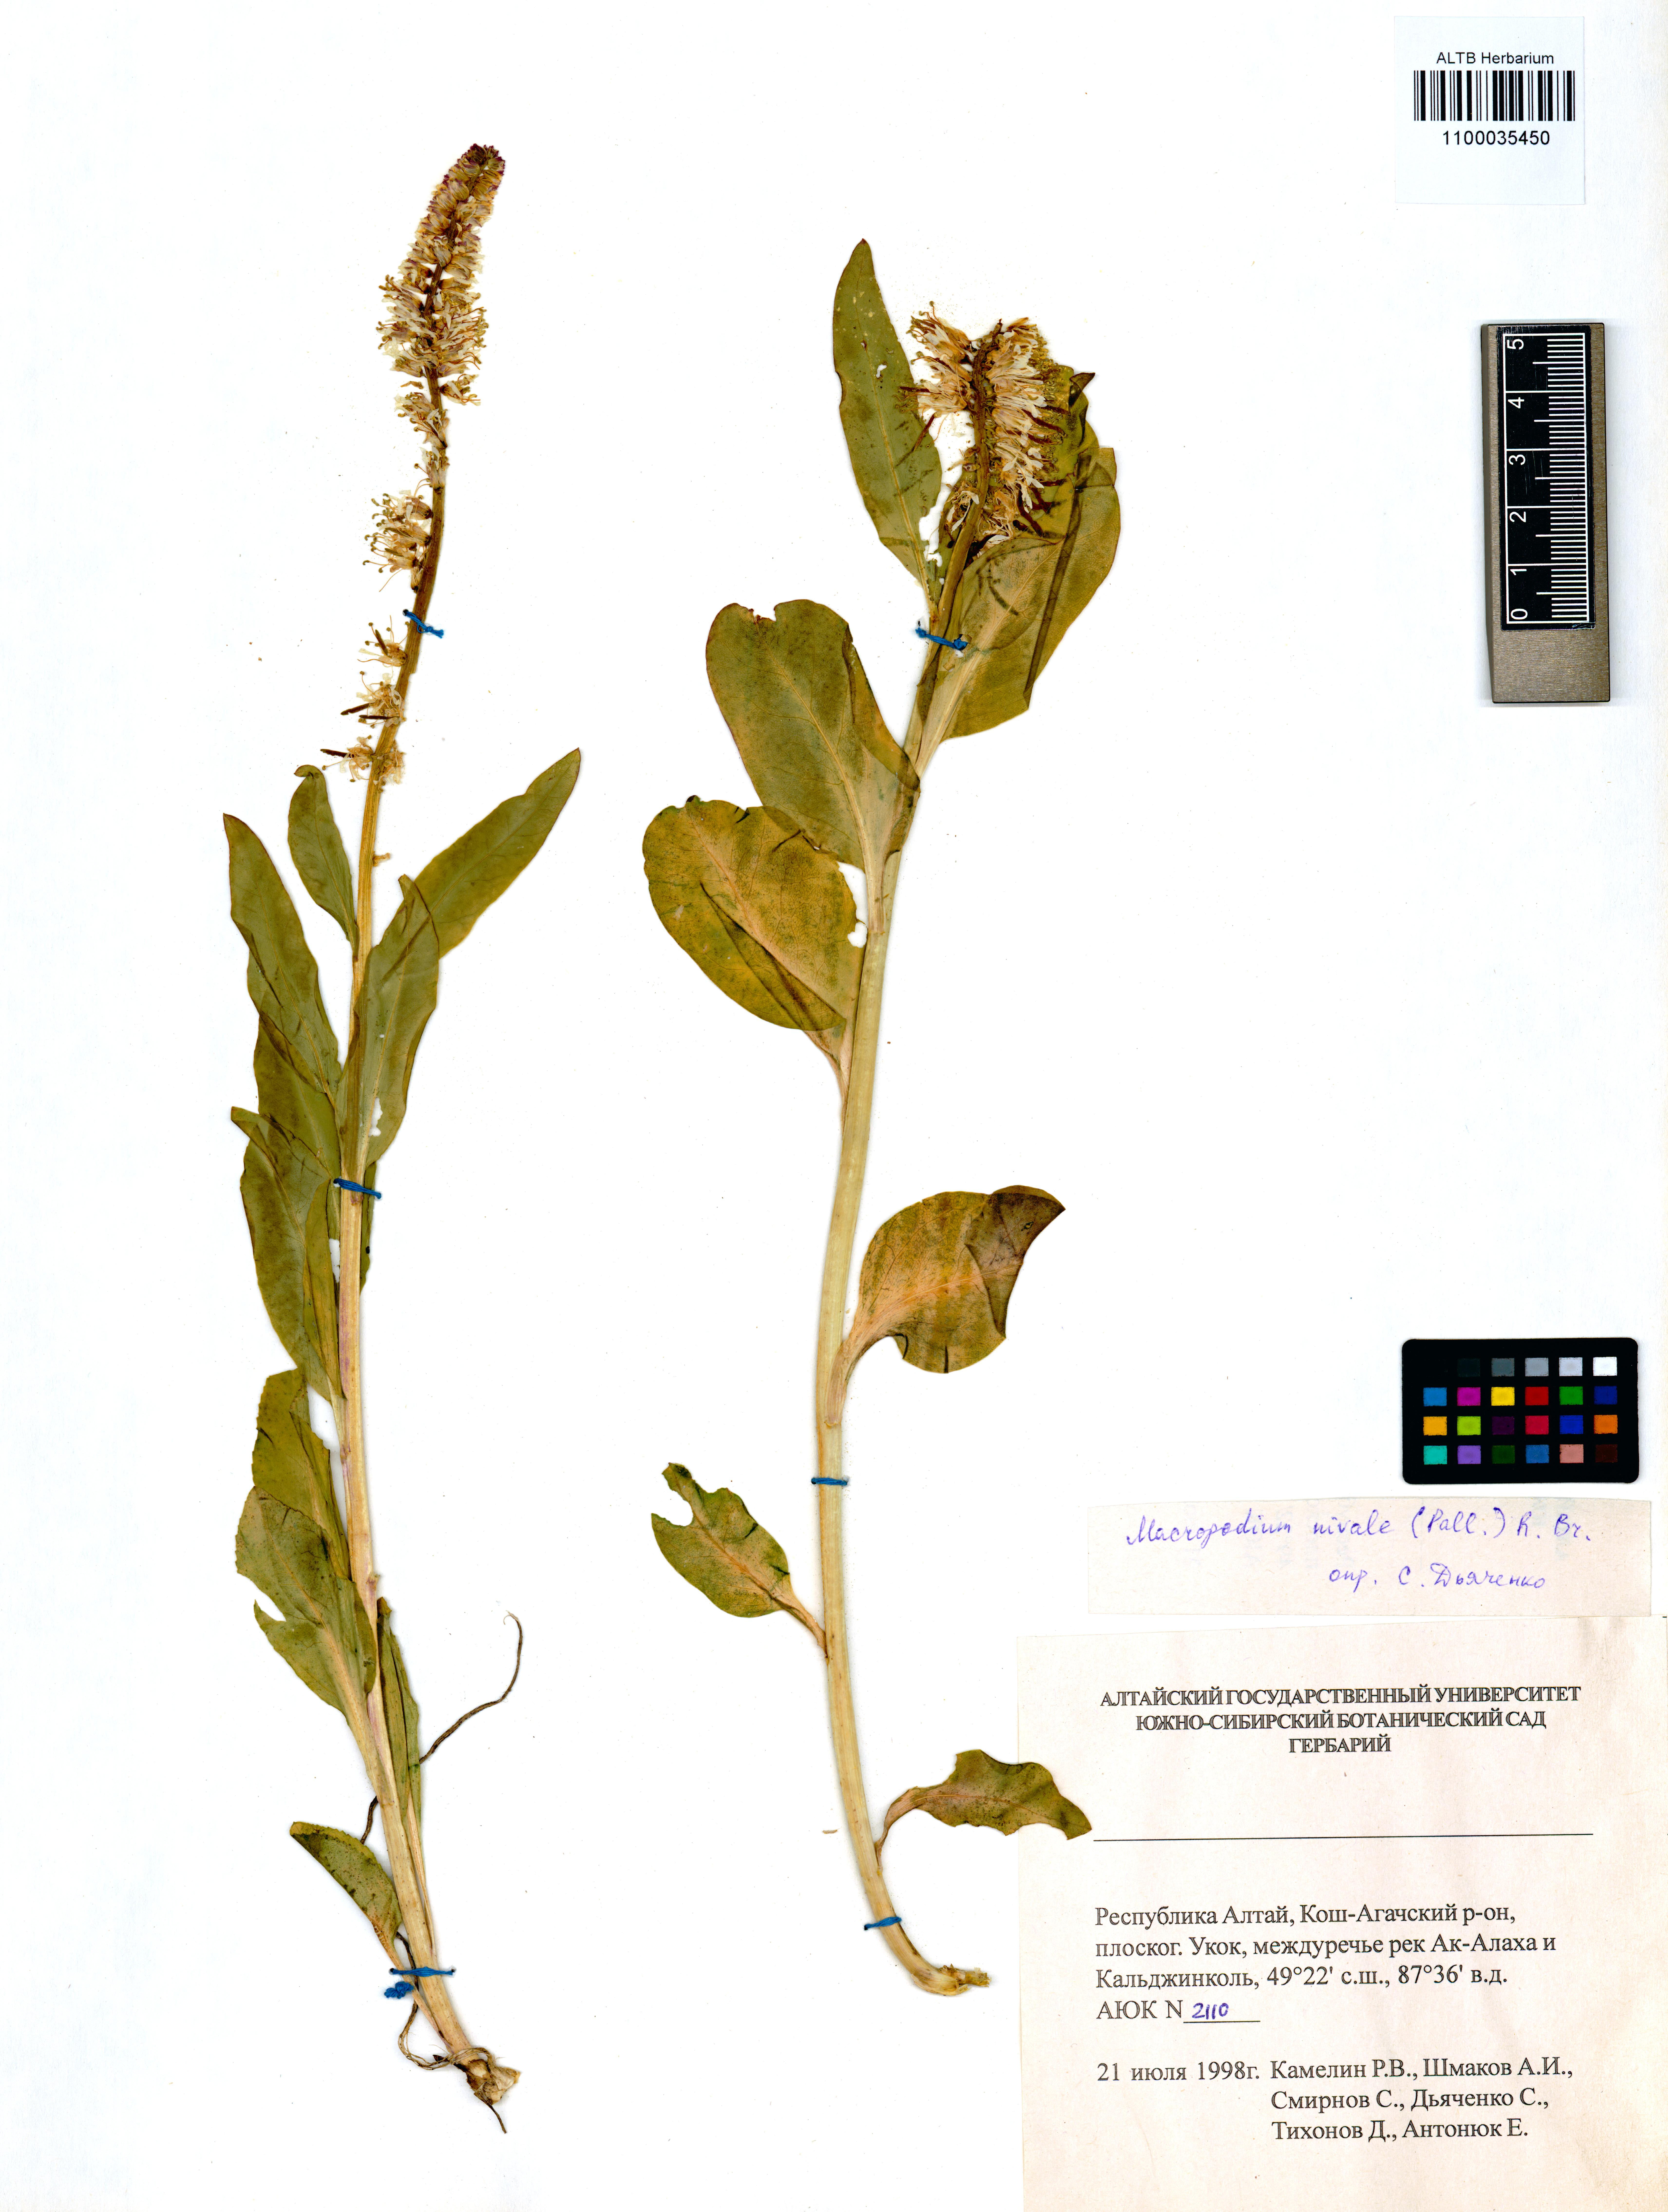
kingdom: Plantae
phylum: Tracheophyta
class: Magnoliopsida
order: Brassicales
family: Brassicaceae
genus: Macropodium
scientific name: Macropodium nivale
